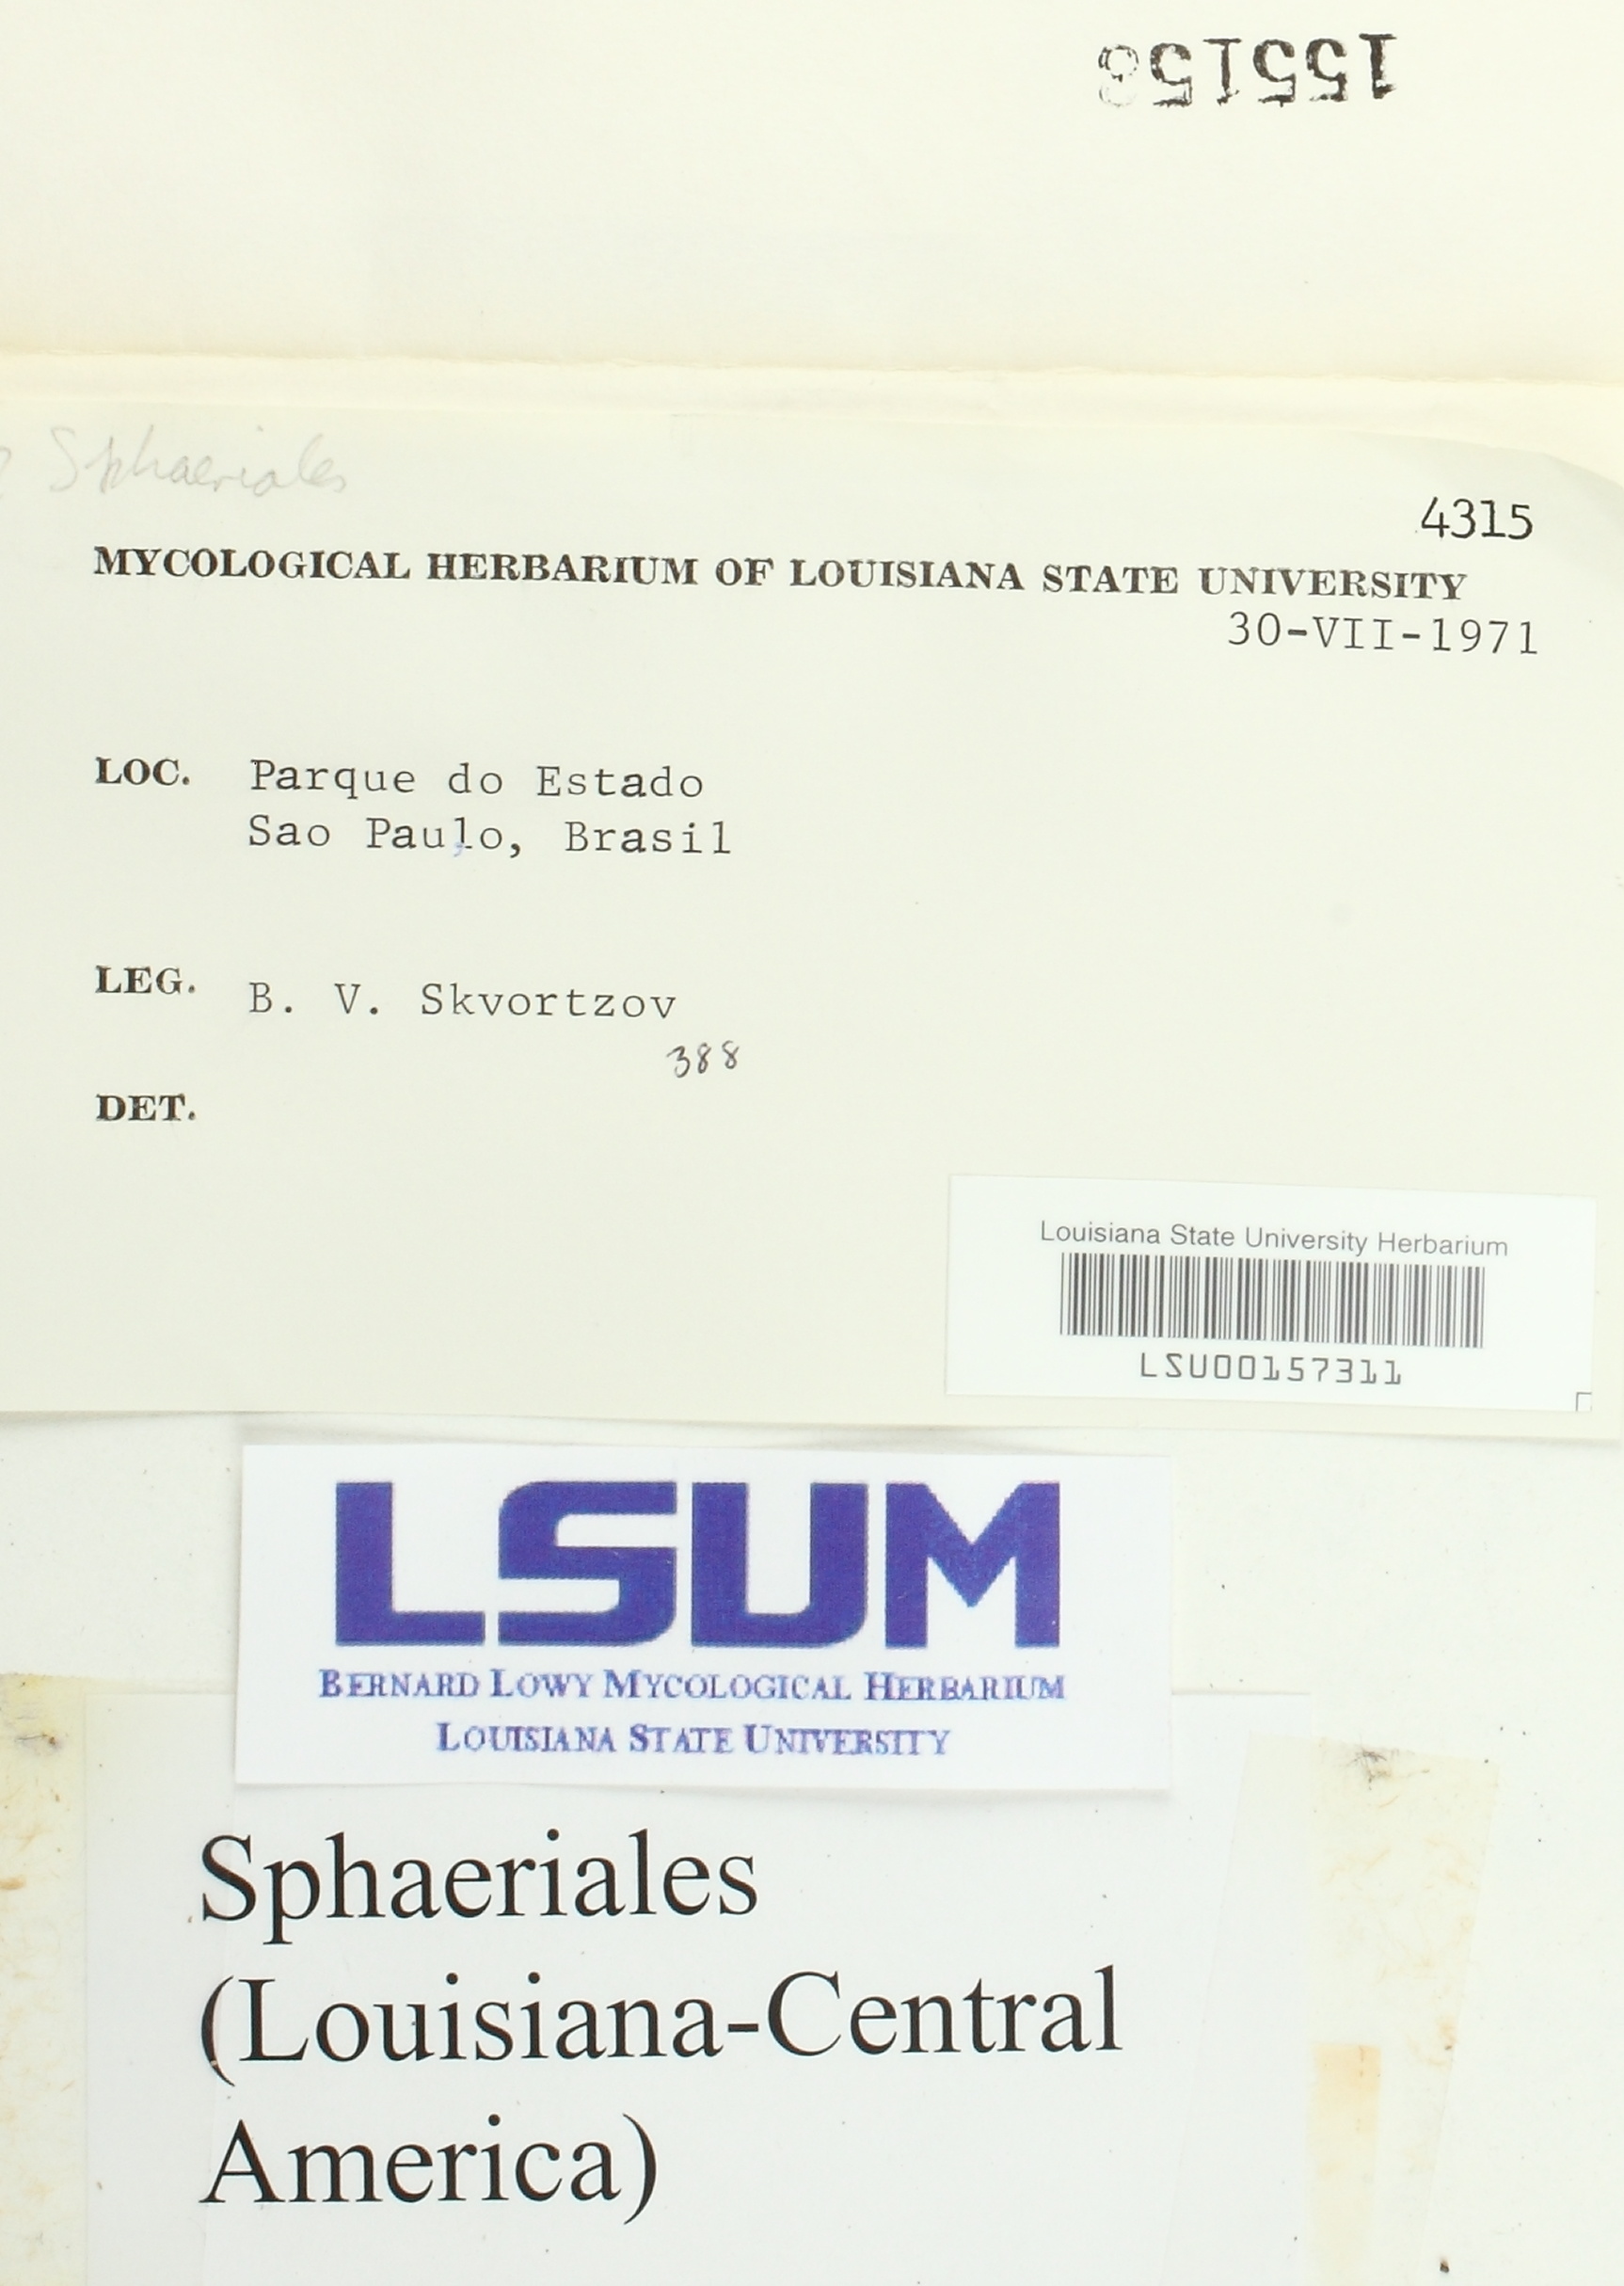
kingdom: Fungi
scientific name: Fungi
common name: Fungi
